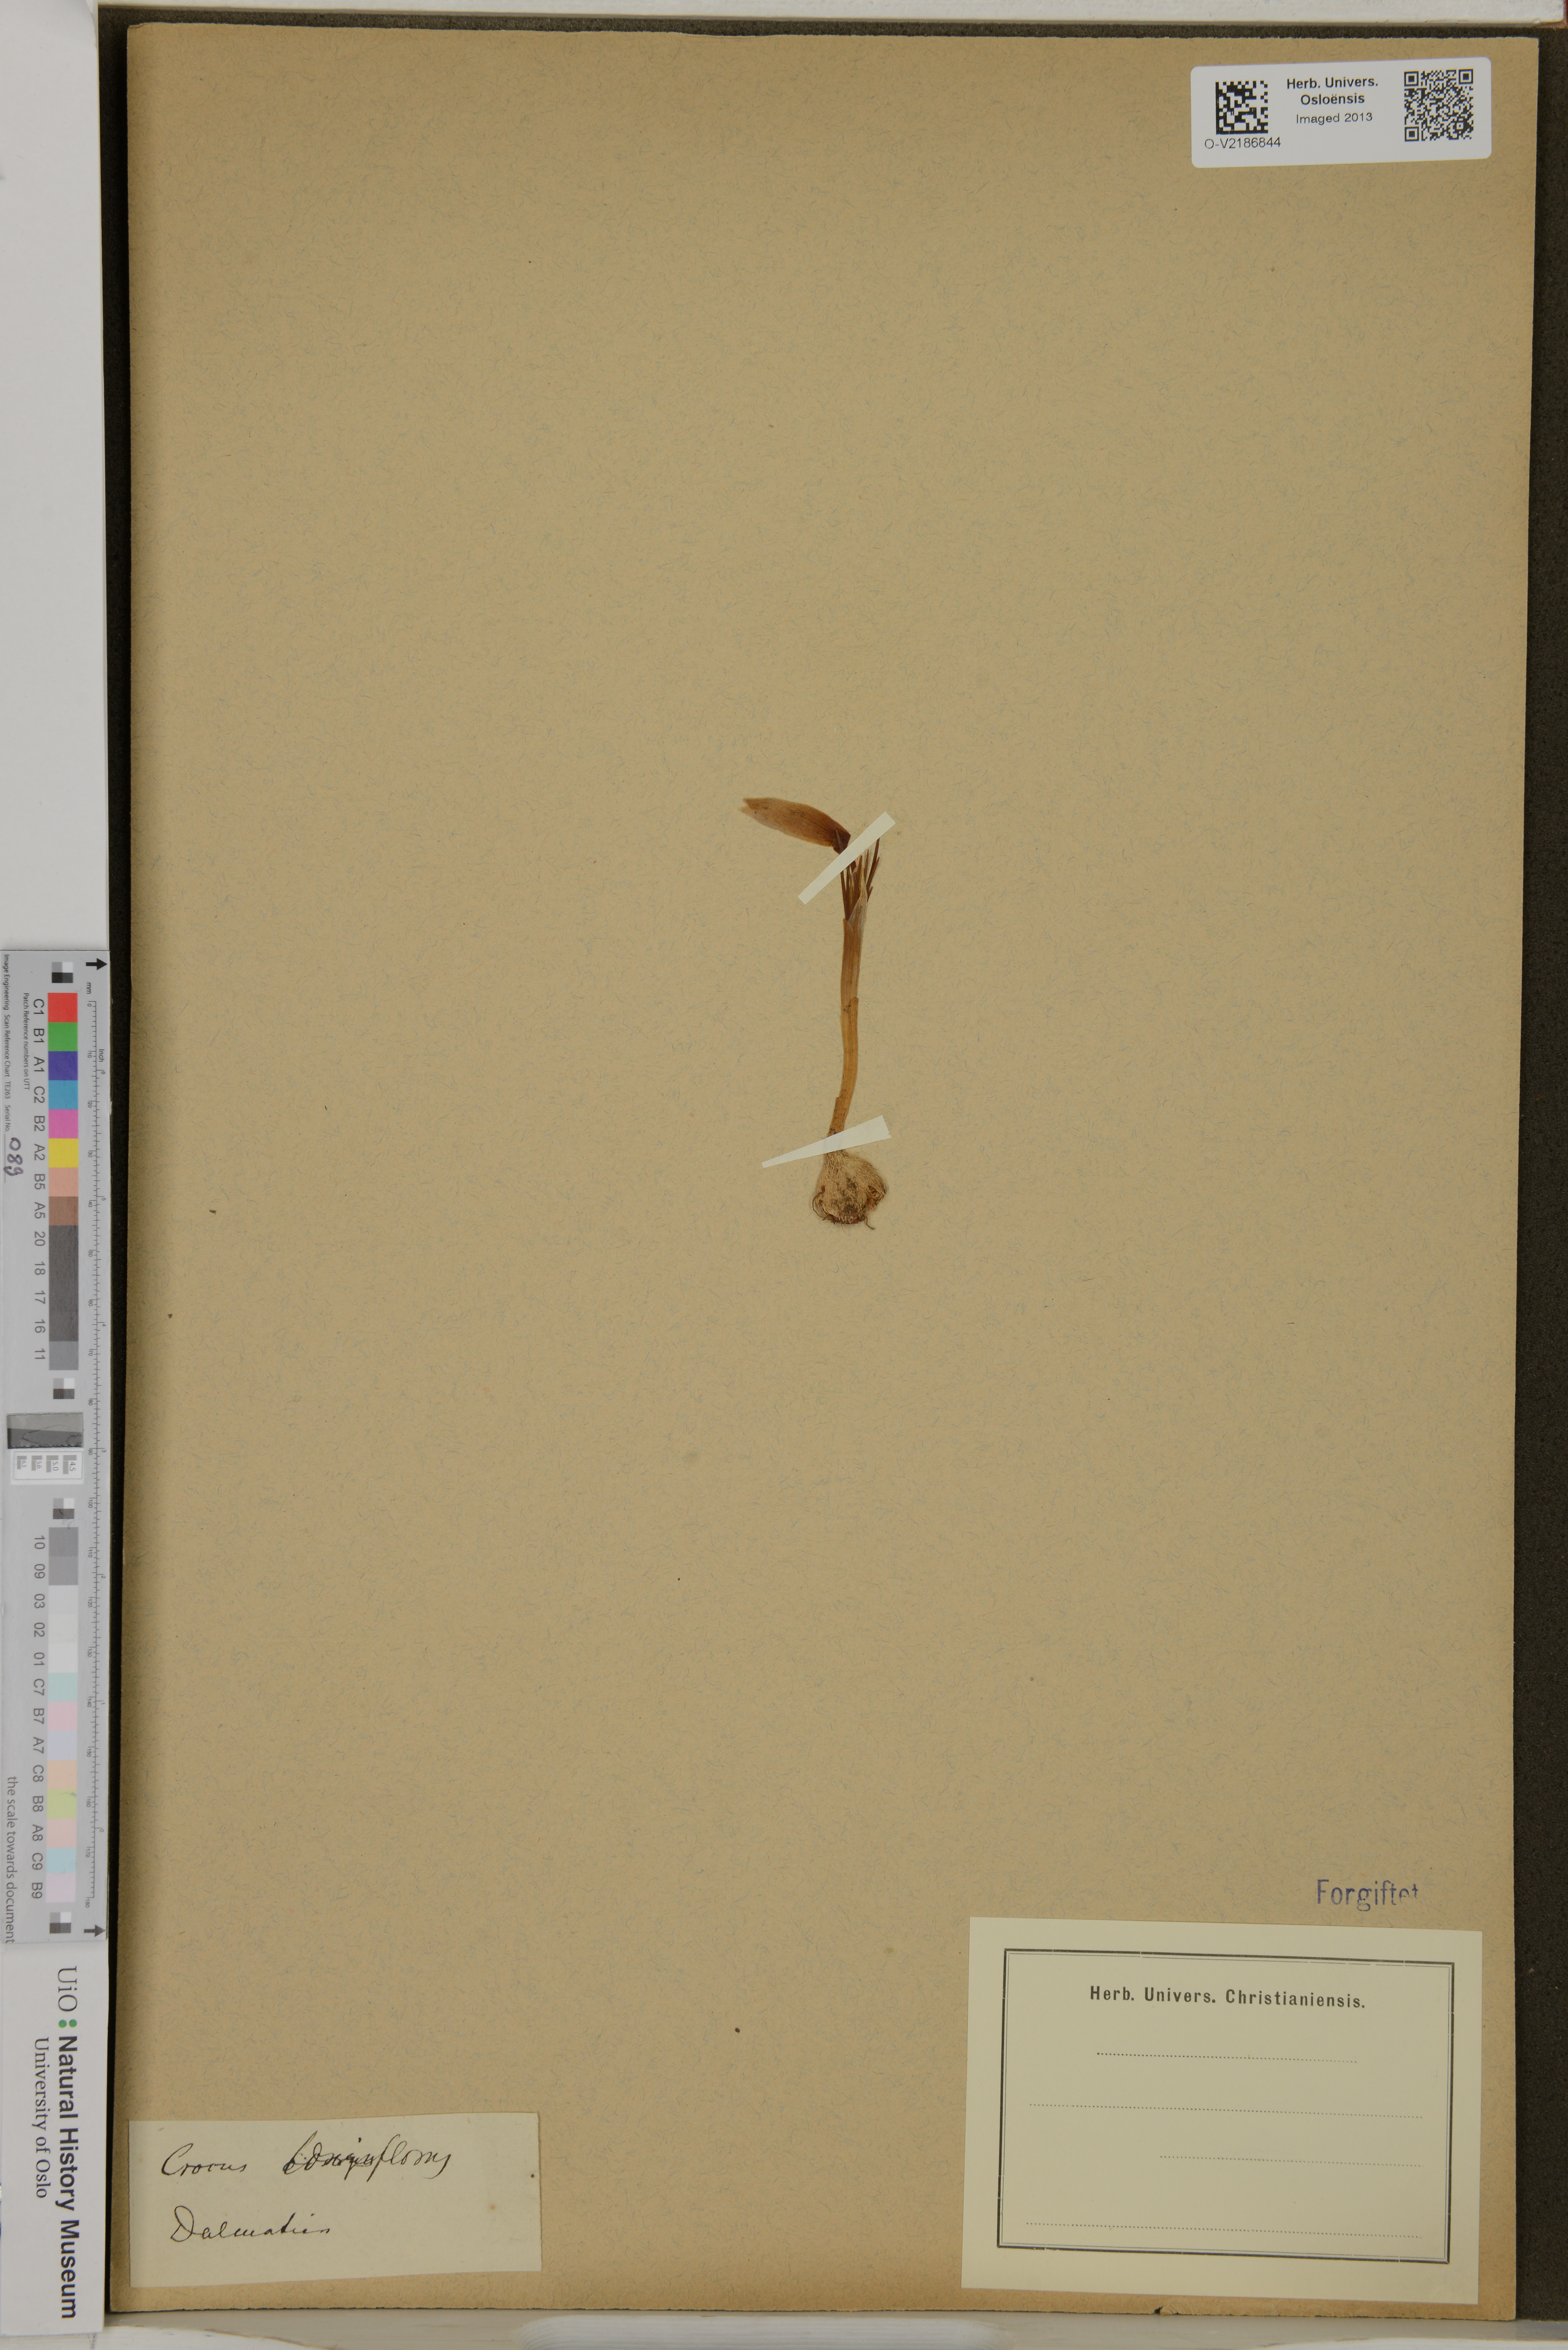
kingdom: Plantae
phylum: Tracheophyta
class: Liliopsida
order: Asparagales
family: Iridaceae
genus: Crocus
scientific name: Crocus vernus
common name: Spring crocus
